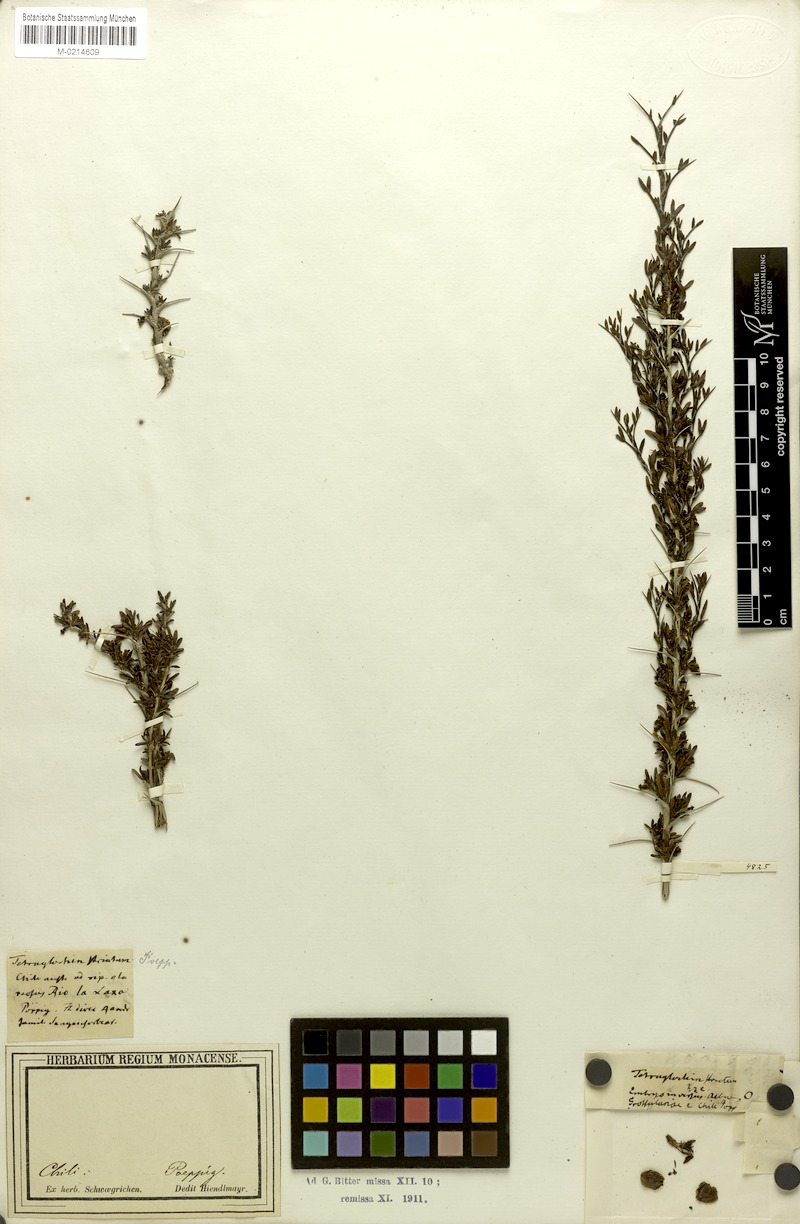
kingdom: Plantae
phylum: Tracheophyta
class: Magnoliopsida
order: Rosales
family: Rosaceae
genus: Margyricarpus
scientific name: Margyricarpus alatus
